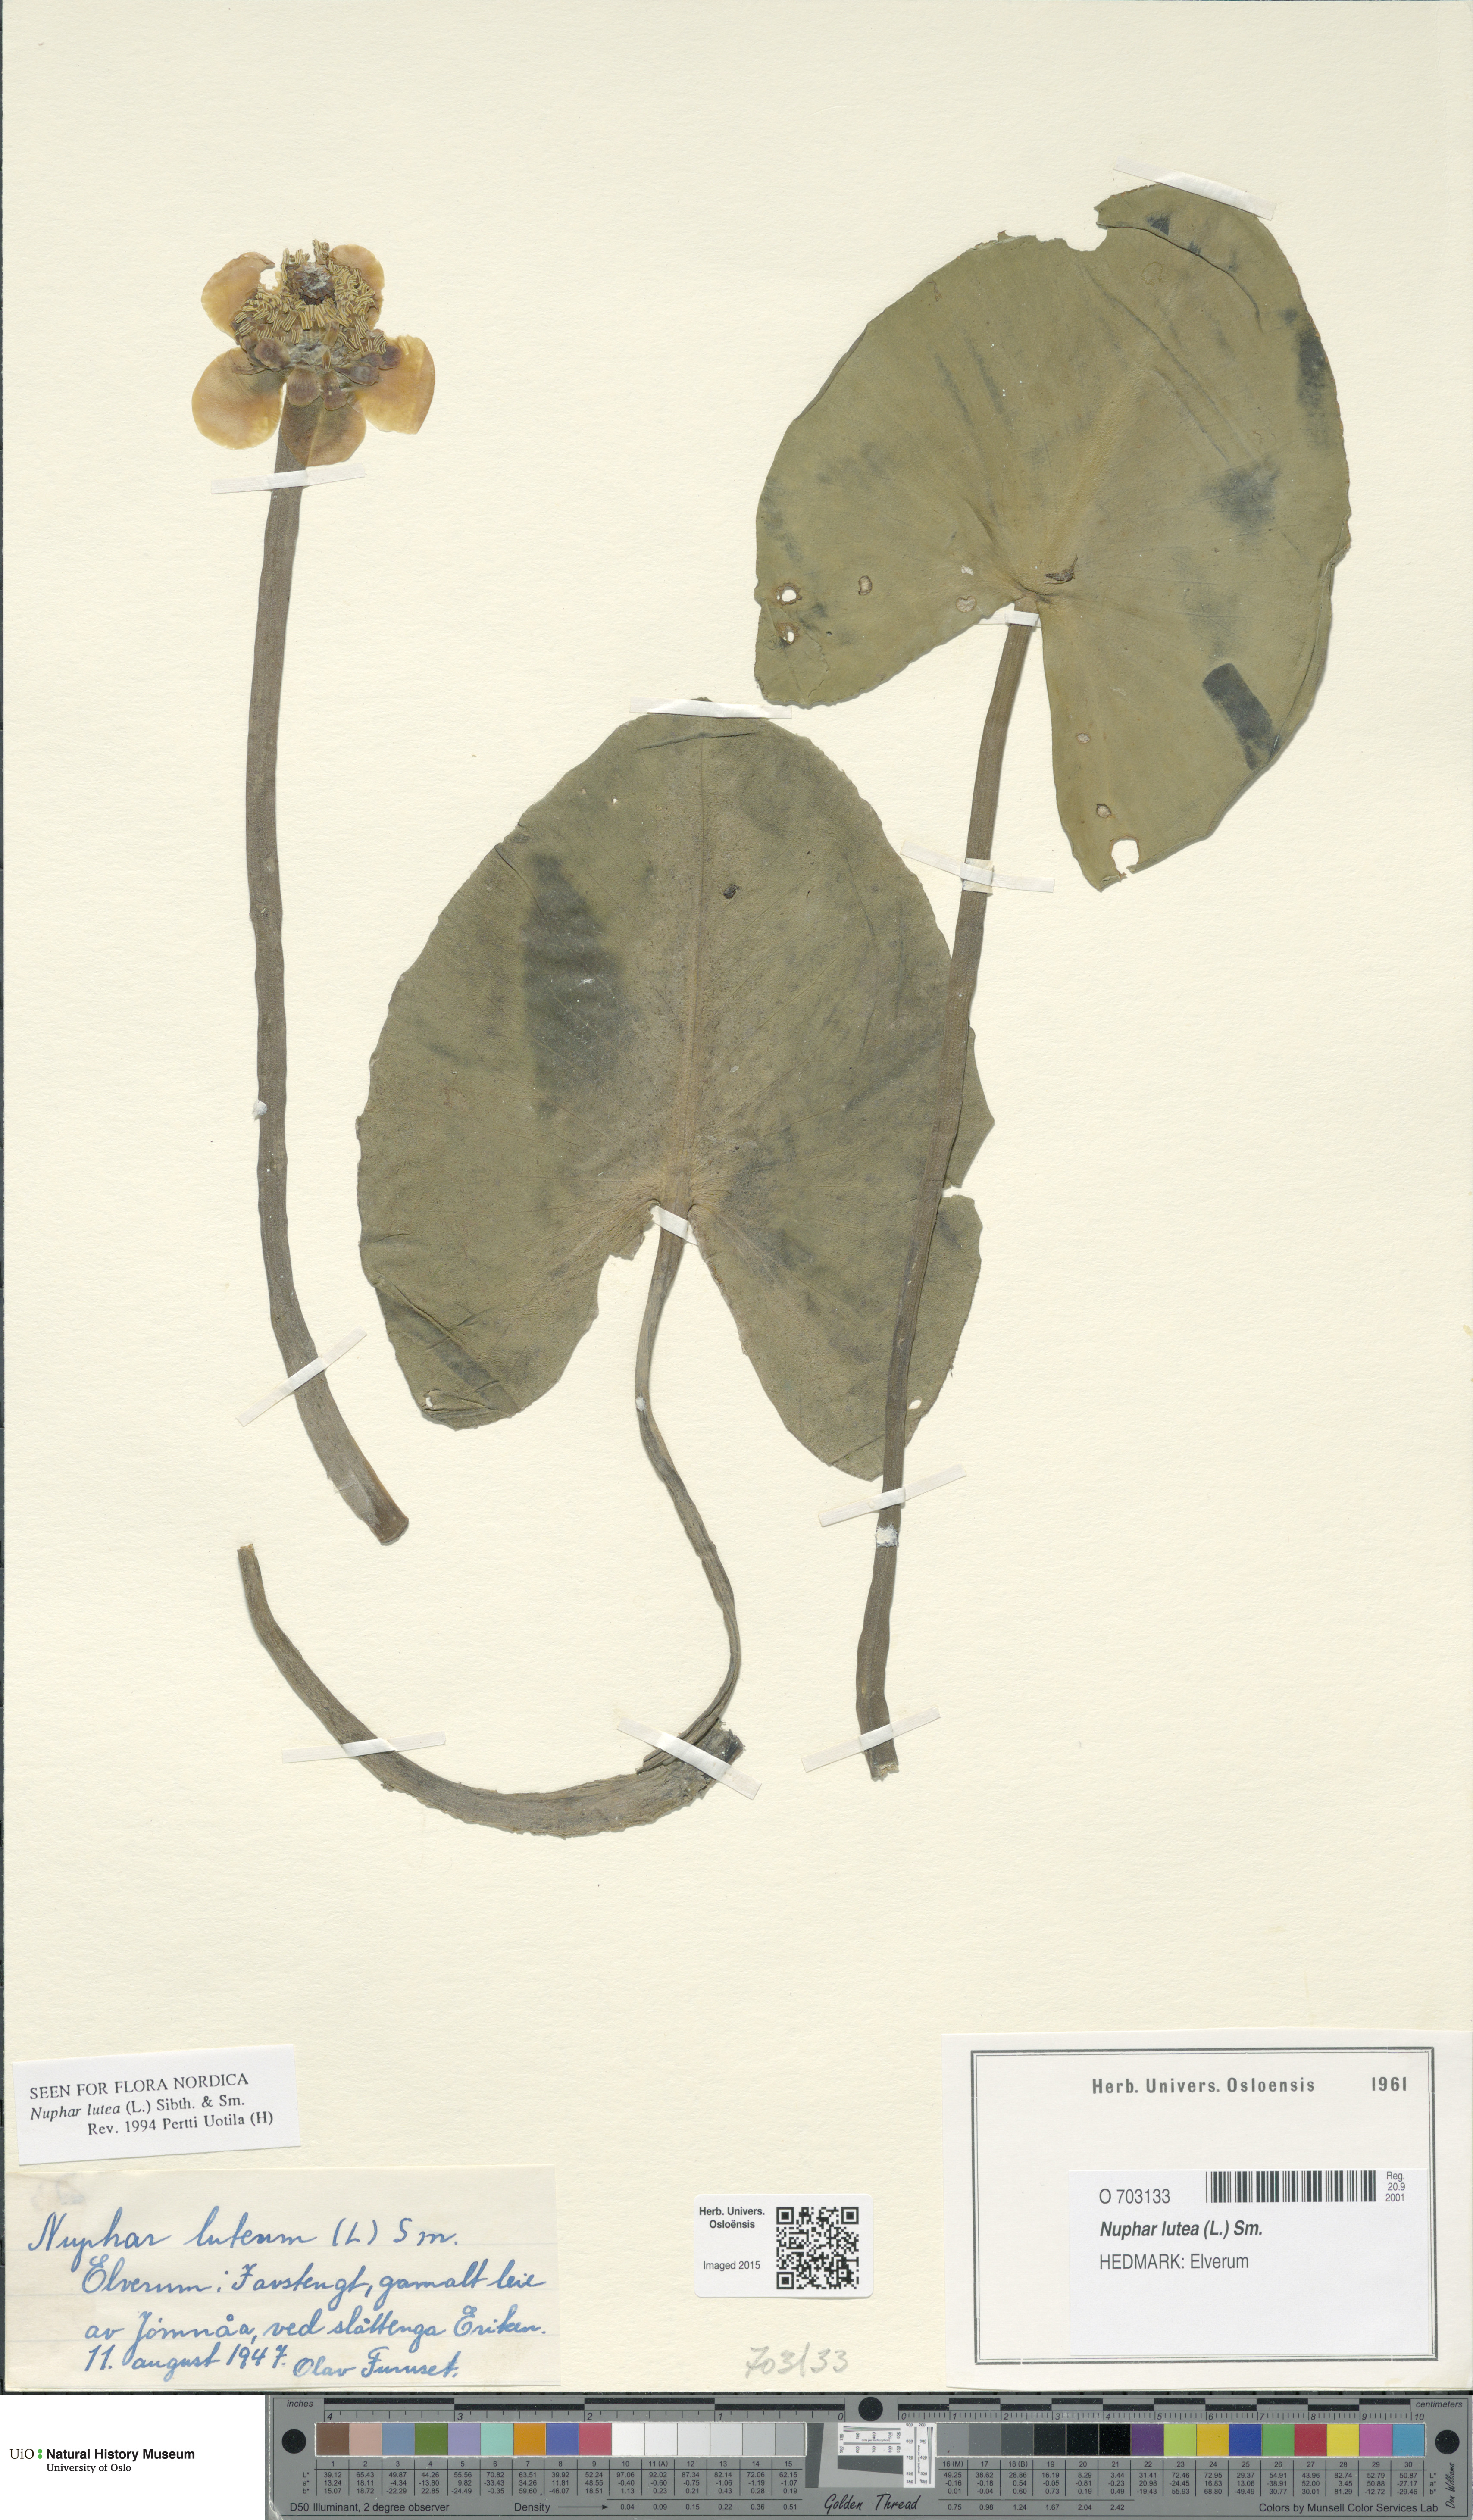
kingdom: Plantae
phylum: Tracheophyta
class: Magnoliopsida
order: Nymphaeales
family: Nymphaeaceae
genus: Nuphar
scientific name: Nuphar lutea
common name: Yellow water-lily
